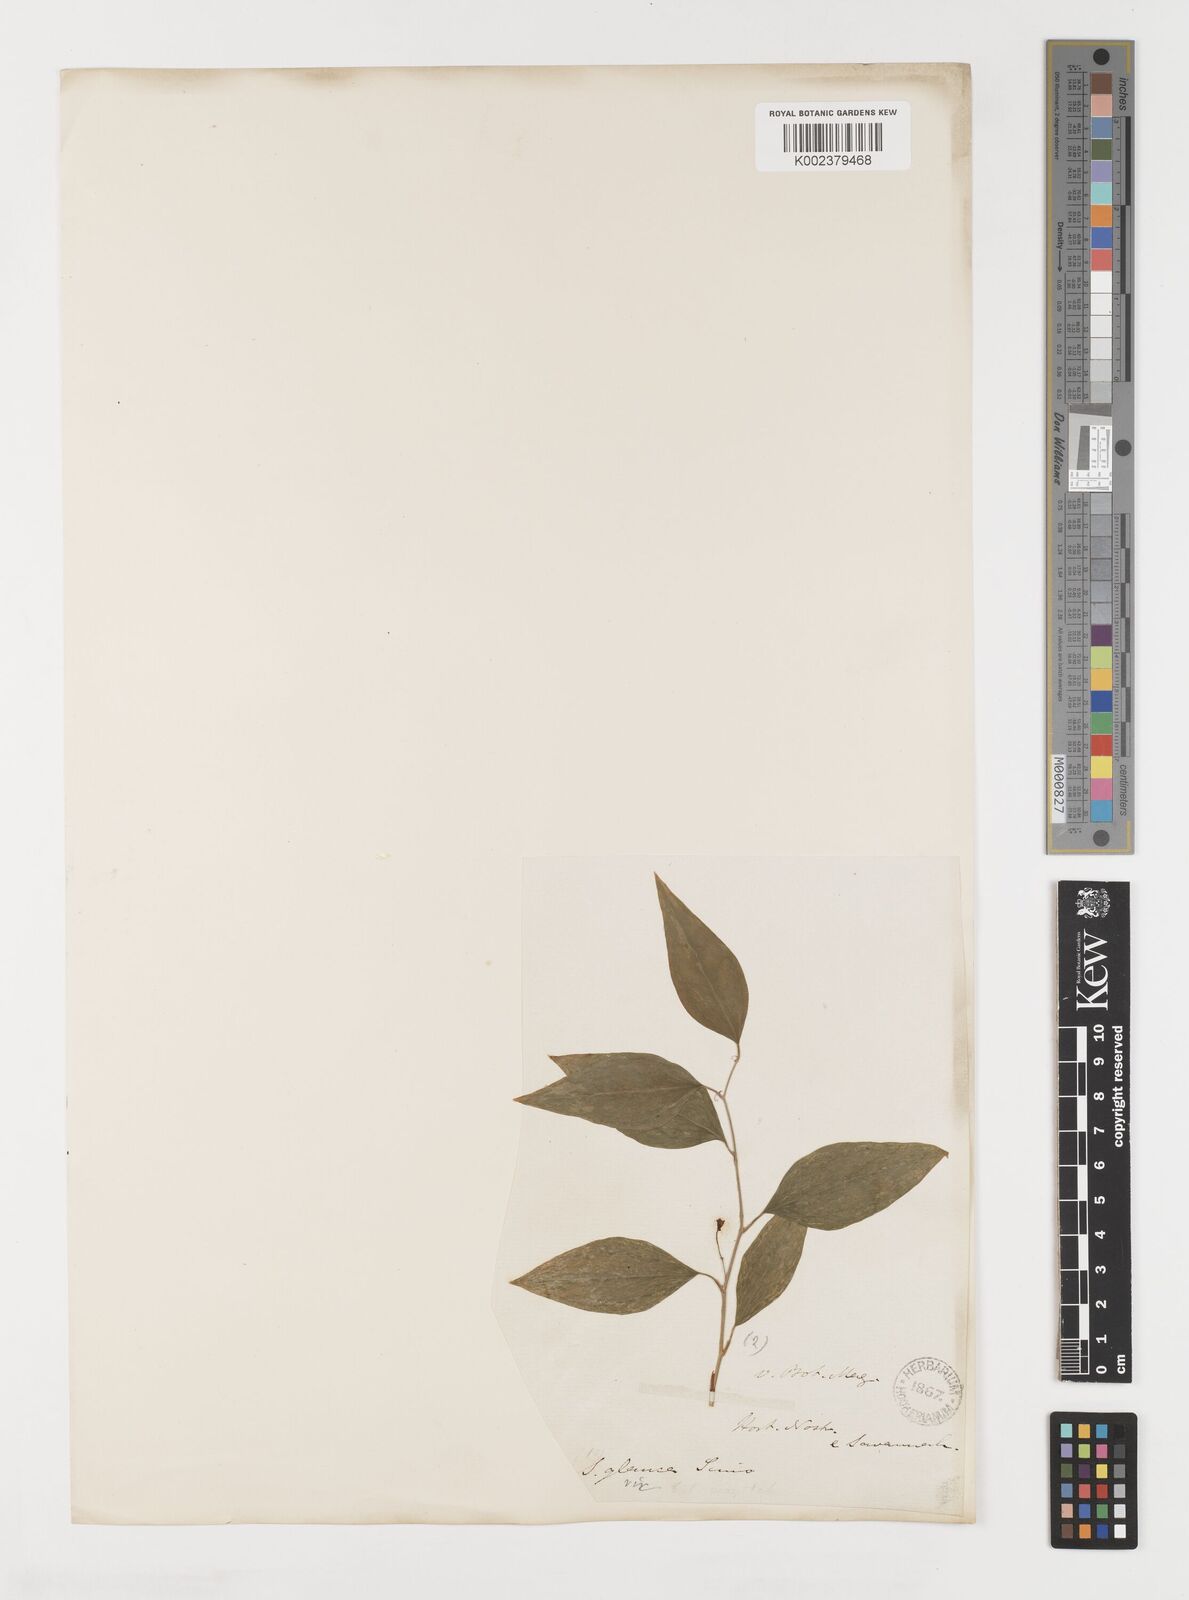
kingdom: Plantae
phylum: Tracheophyta
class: Liliopsida
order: Liliales
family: Smilacaceae
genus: Smilax
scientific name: Smilax
